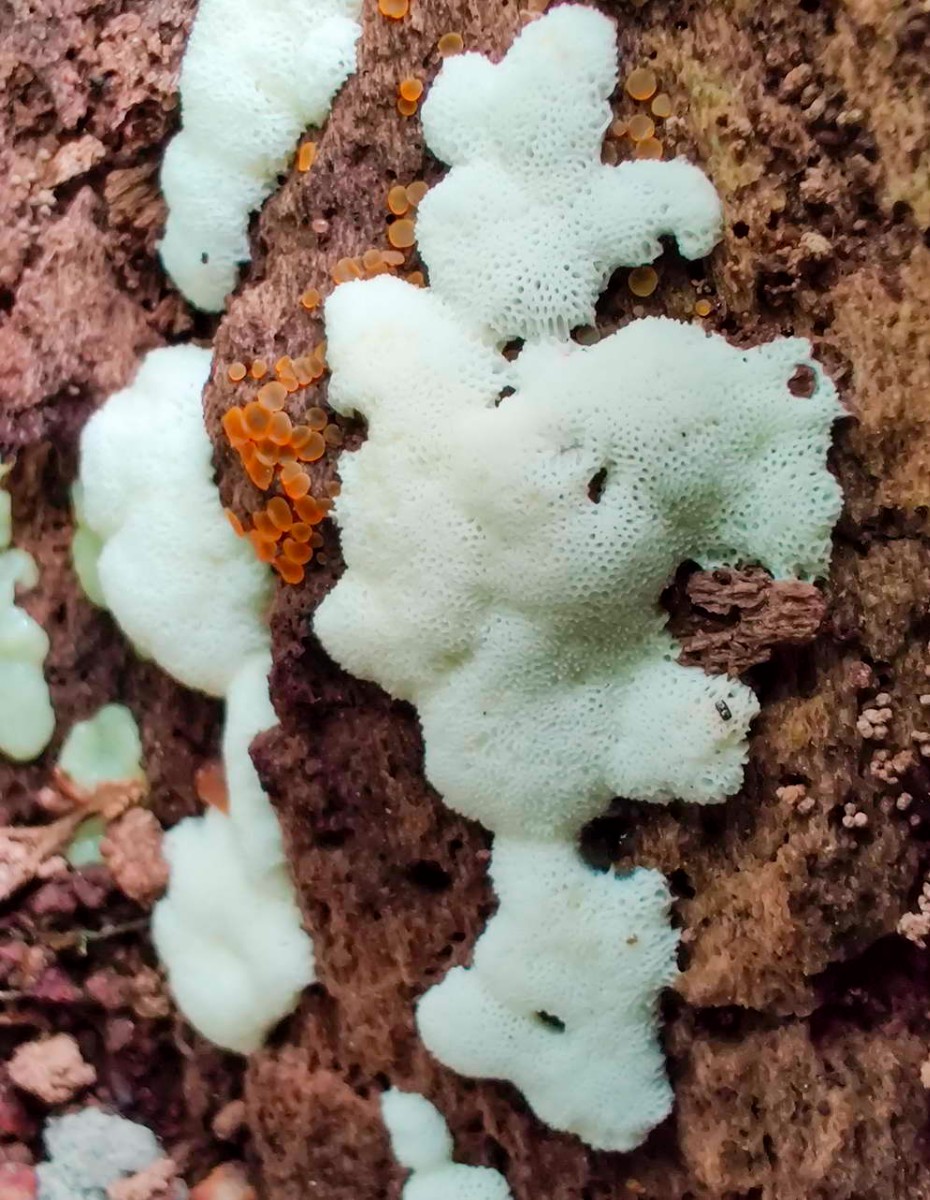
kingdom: Protozoa
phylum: Mycetozoa
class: Protosteliomycetes
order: Ceratiomyxales
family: Ceratiomyxaceae
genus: Ceratiomyxa
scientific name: Ceratiomyxa fruticulosa
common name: Honeycomb coral slime mold
